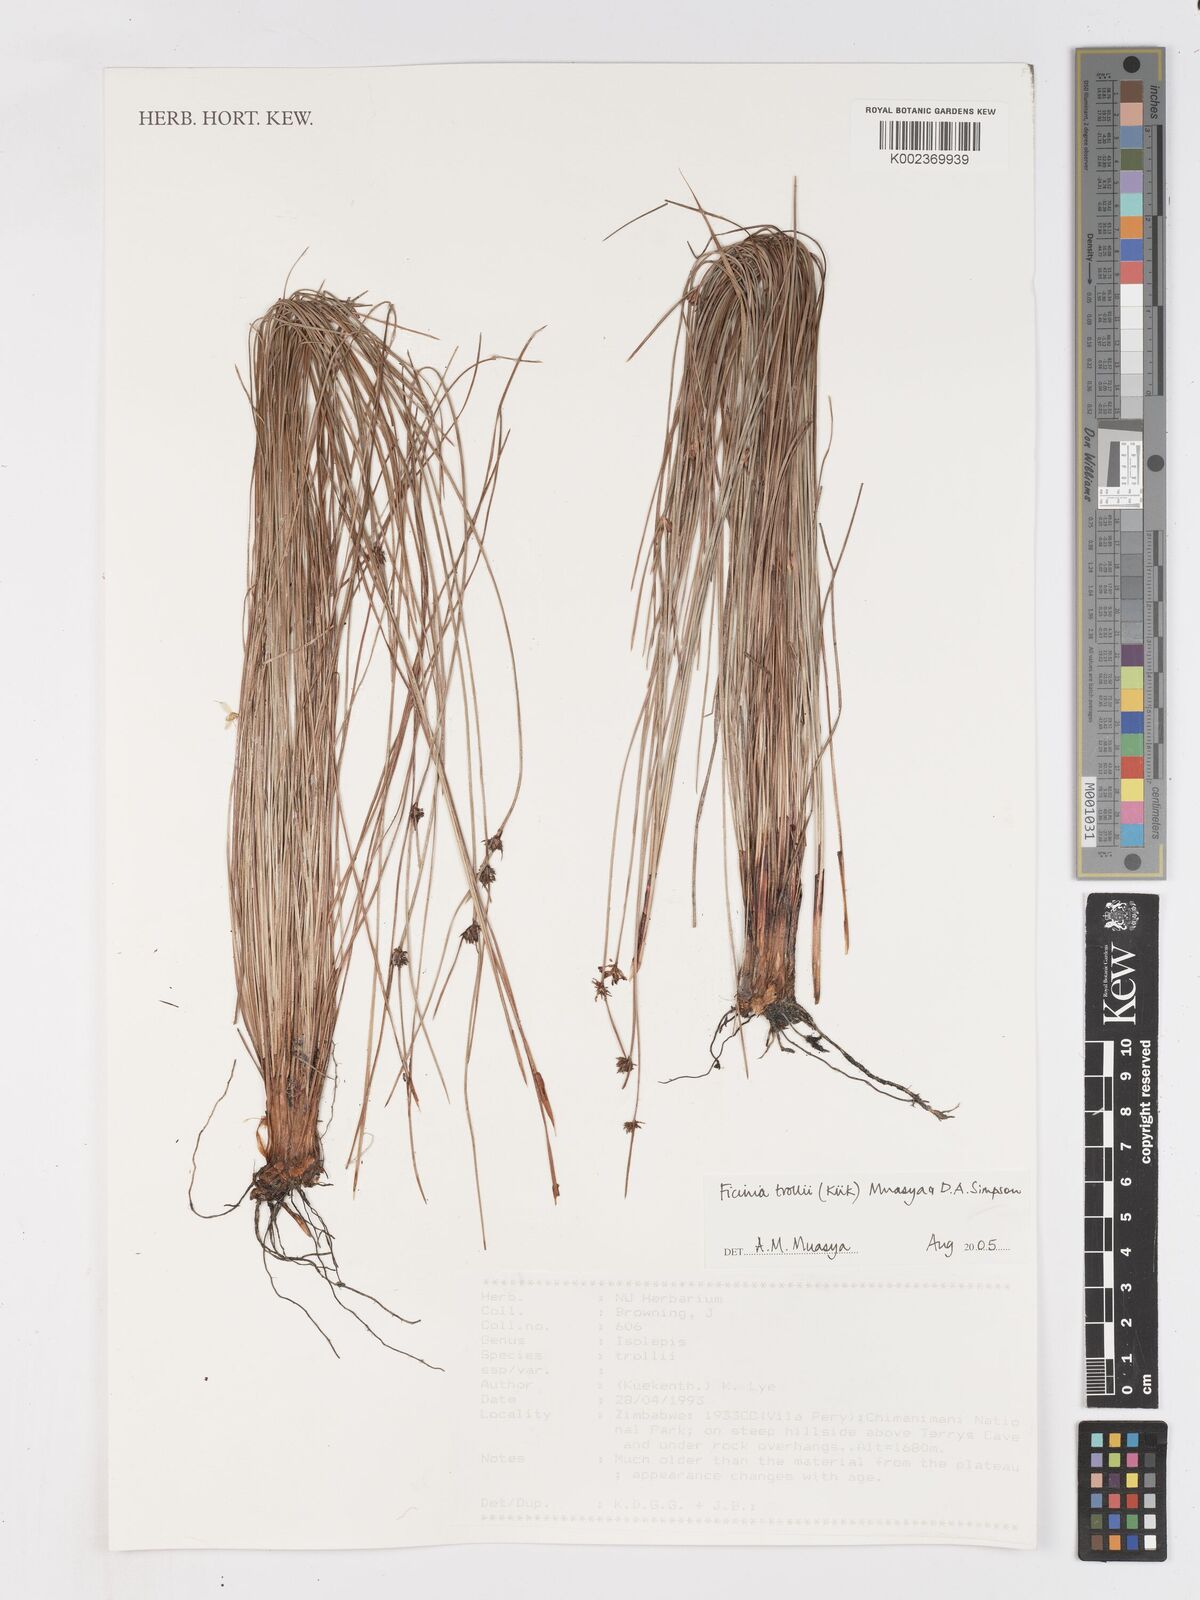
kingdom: Plantae
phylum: Tracheophyta
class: Liliopsida
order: Poales
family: Cyperaceae
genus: Ficinia
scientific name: Ficinia trollii
